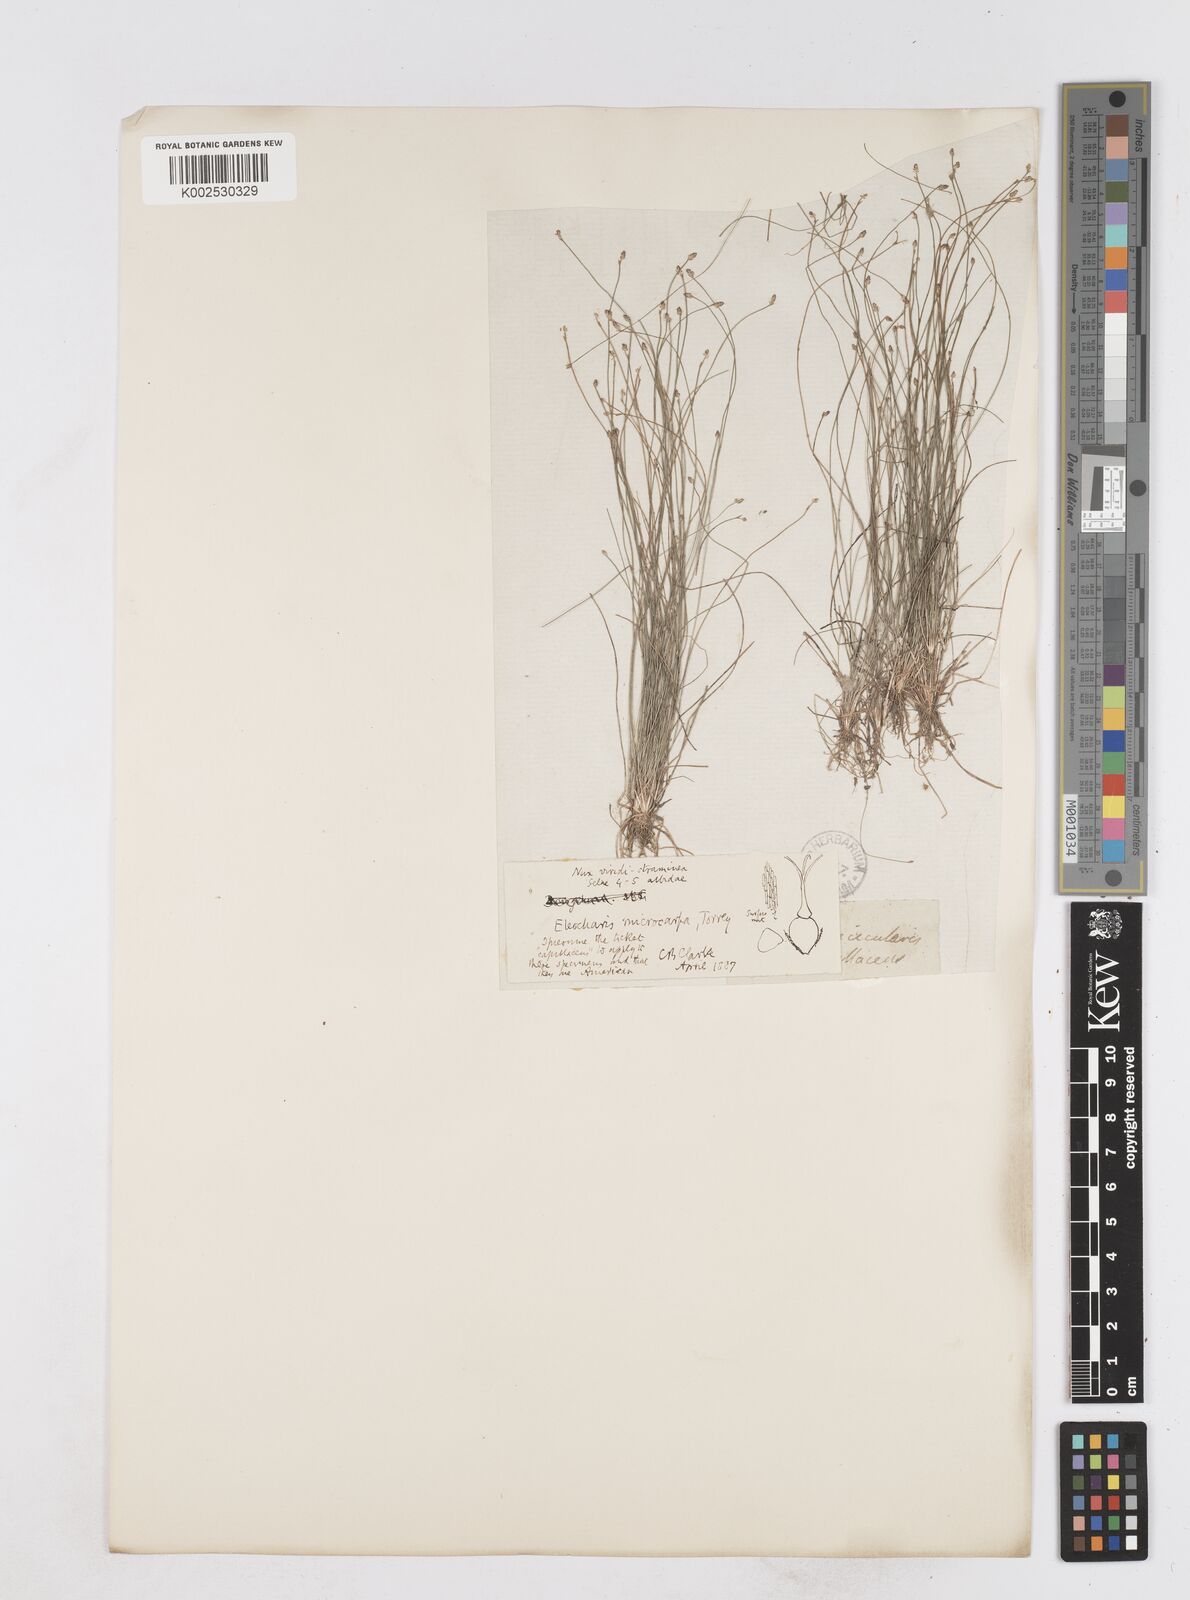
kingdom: Plantae
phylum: Tracheophyta
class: Liliopsida
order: Poales
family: Cyperaceae
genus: Eleocharis
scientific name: Eleocharis microcarpa
